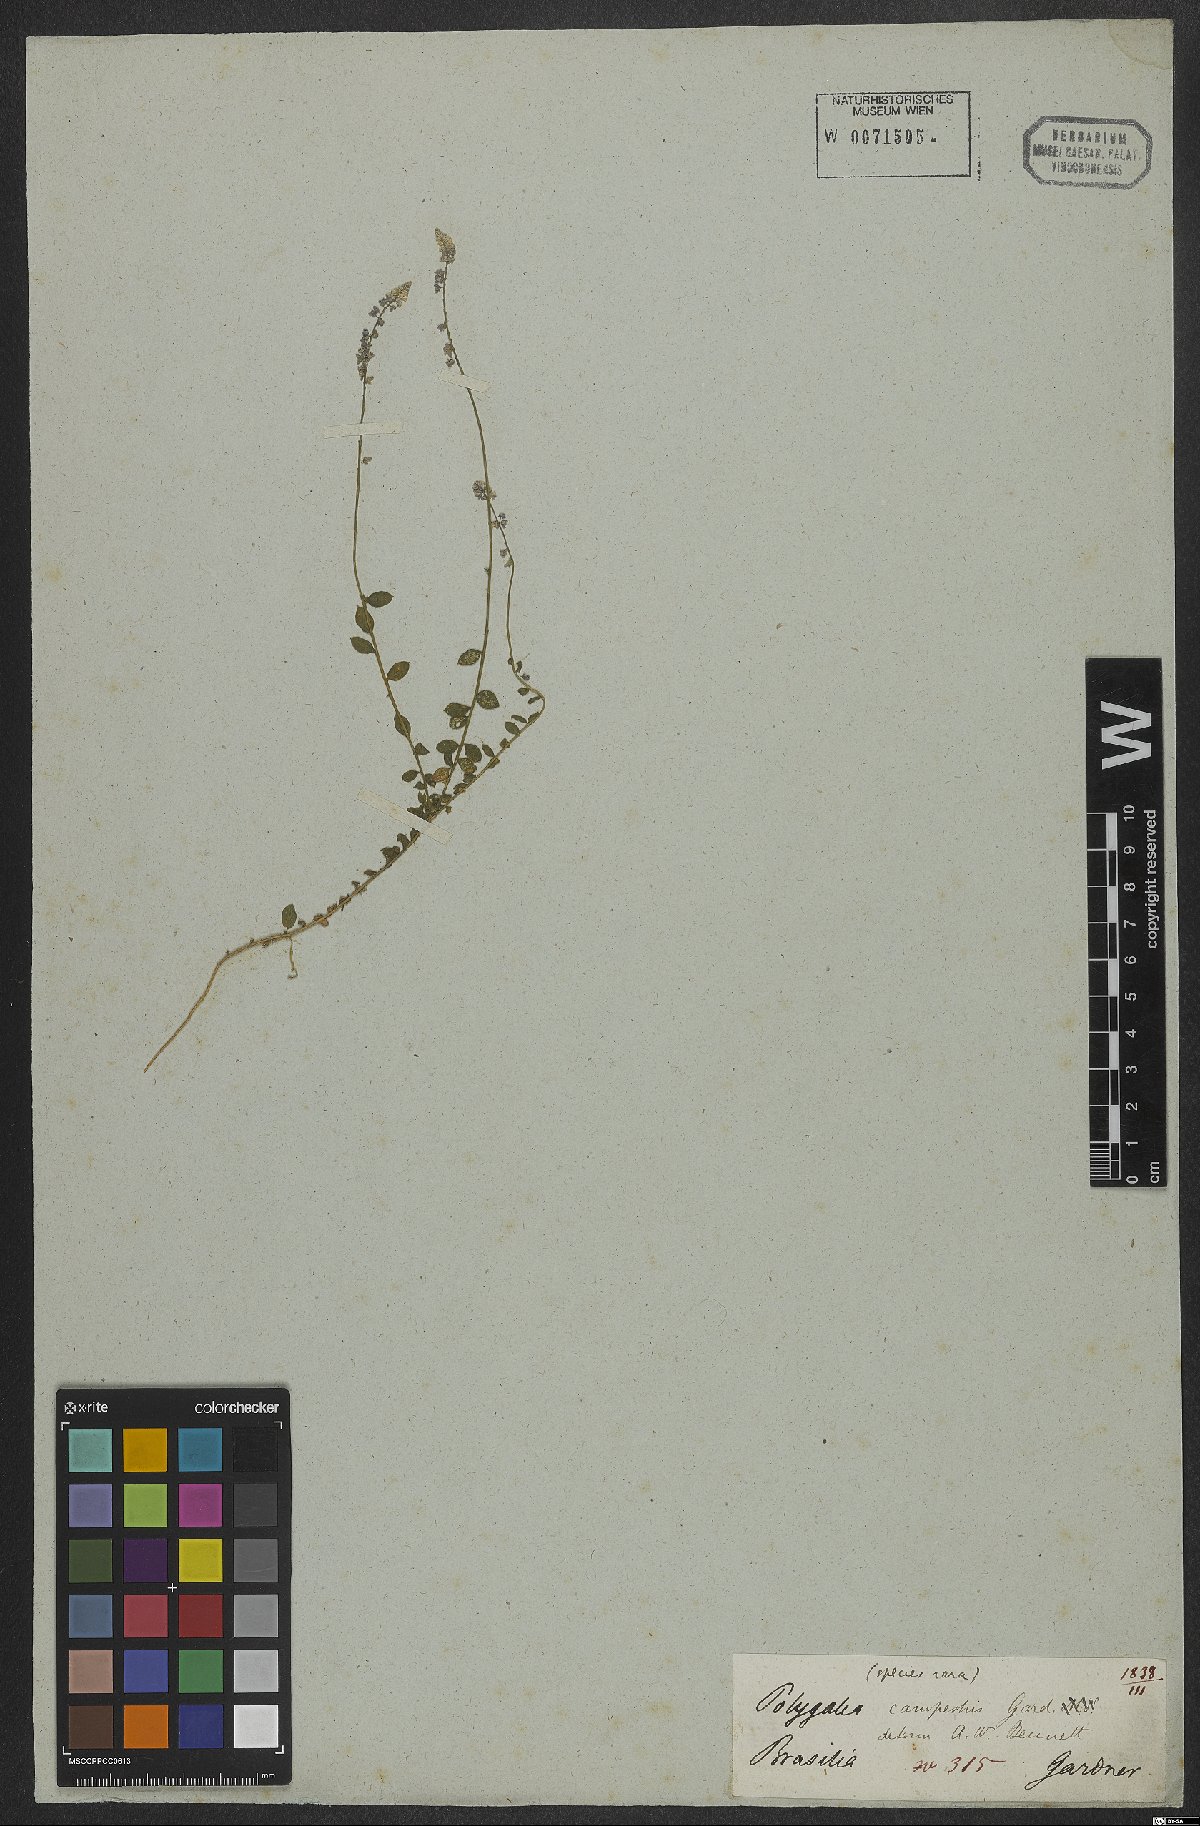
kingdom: Plantae
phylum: Tracheophyta
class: Magnoliopsida
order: Fabales
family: Polygalaceae
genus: Polygala
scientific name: Polygala brasiliensis
